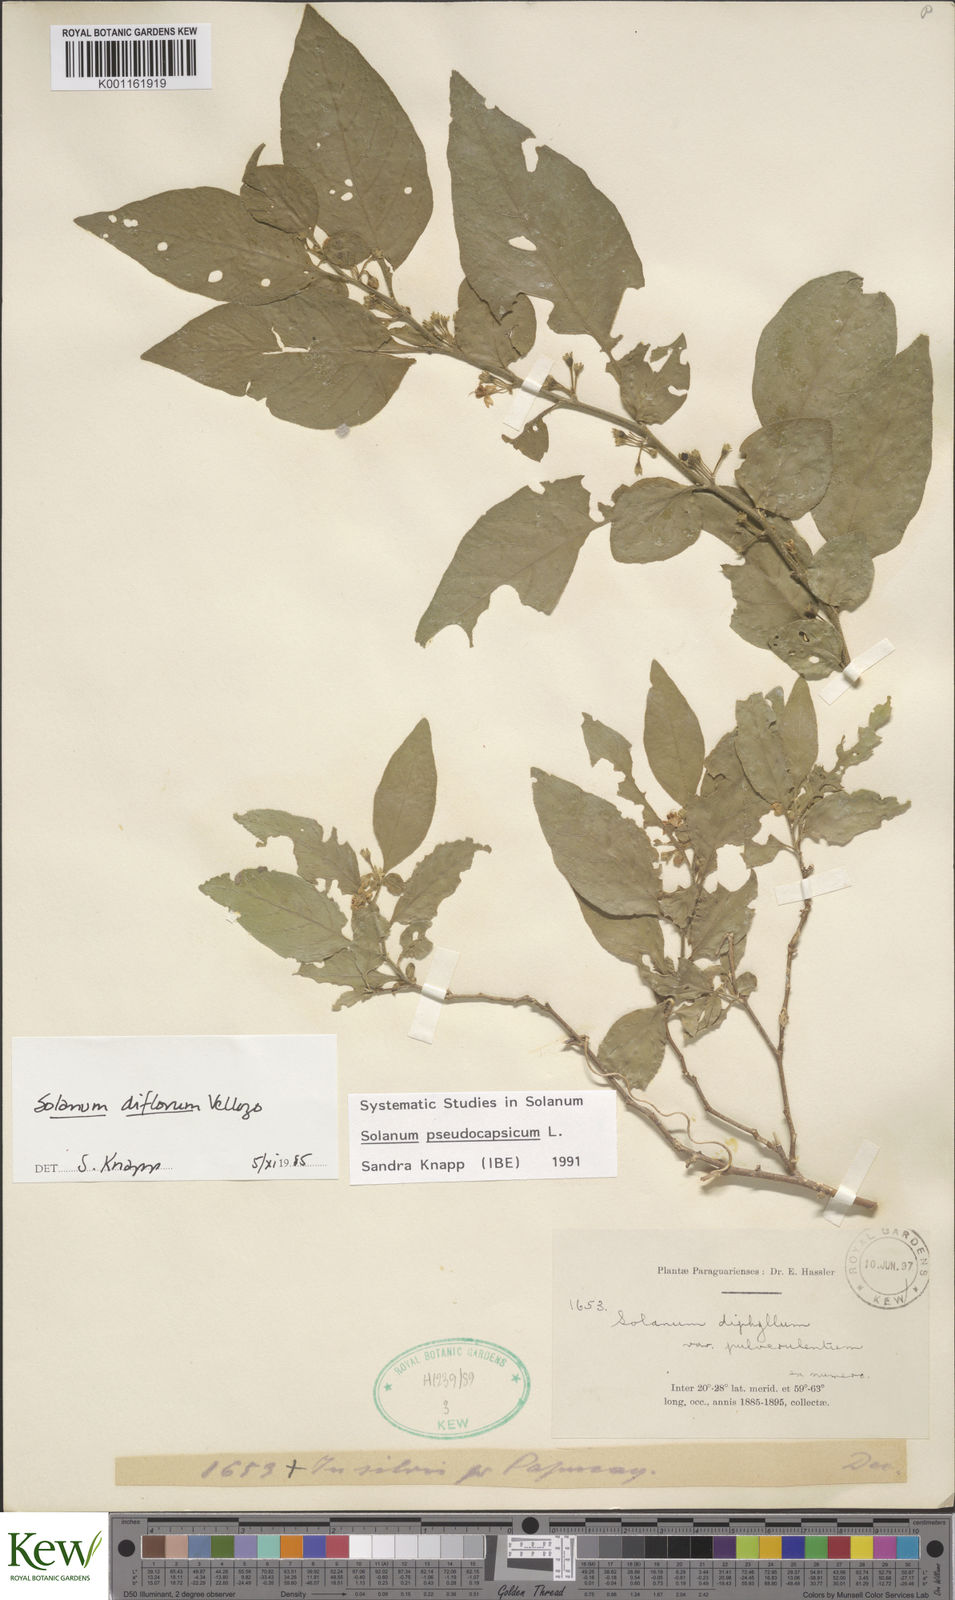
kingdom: Plantae
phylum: Tracheophyta
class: Magnoliopsida
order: Solanales
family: Solanaceae
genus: Solanum
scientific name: Solanum pseudocapsicum
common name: Jerusalem cherry
